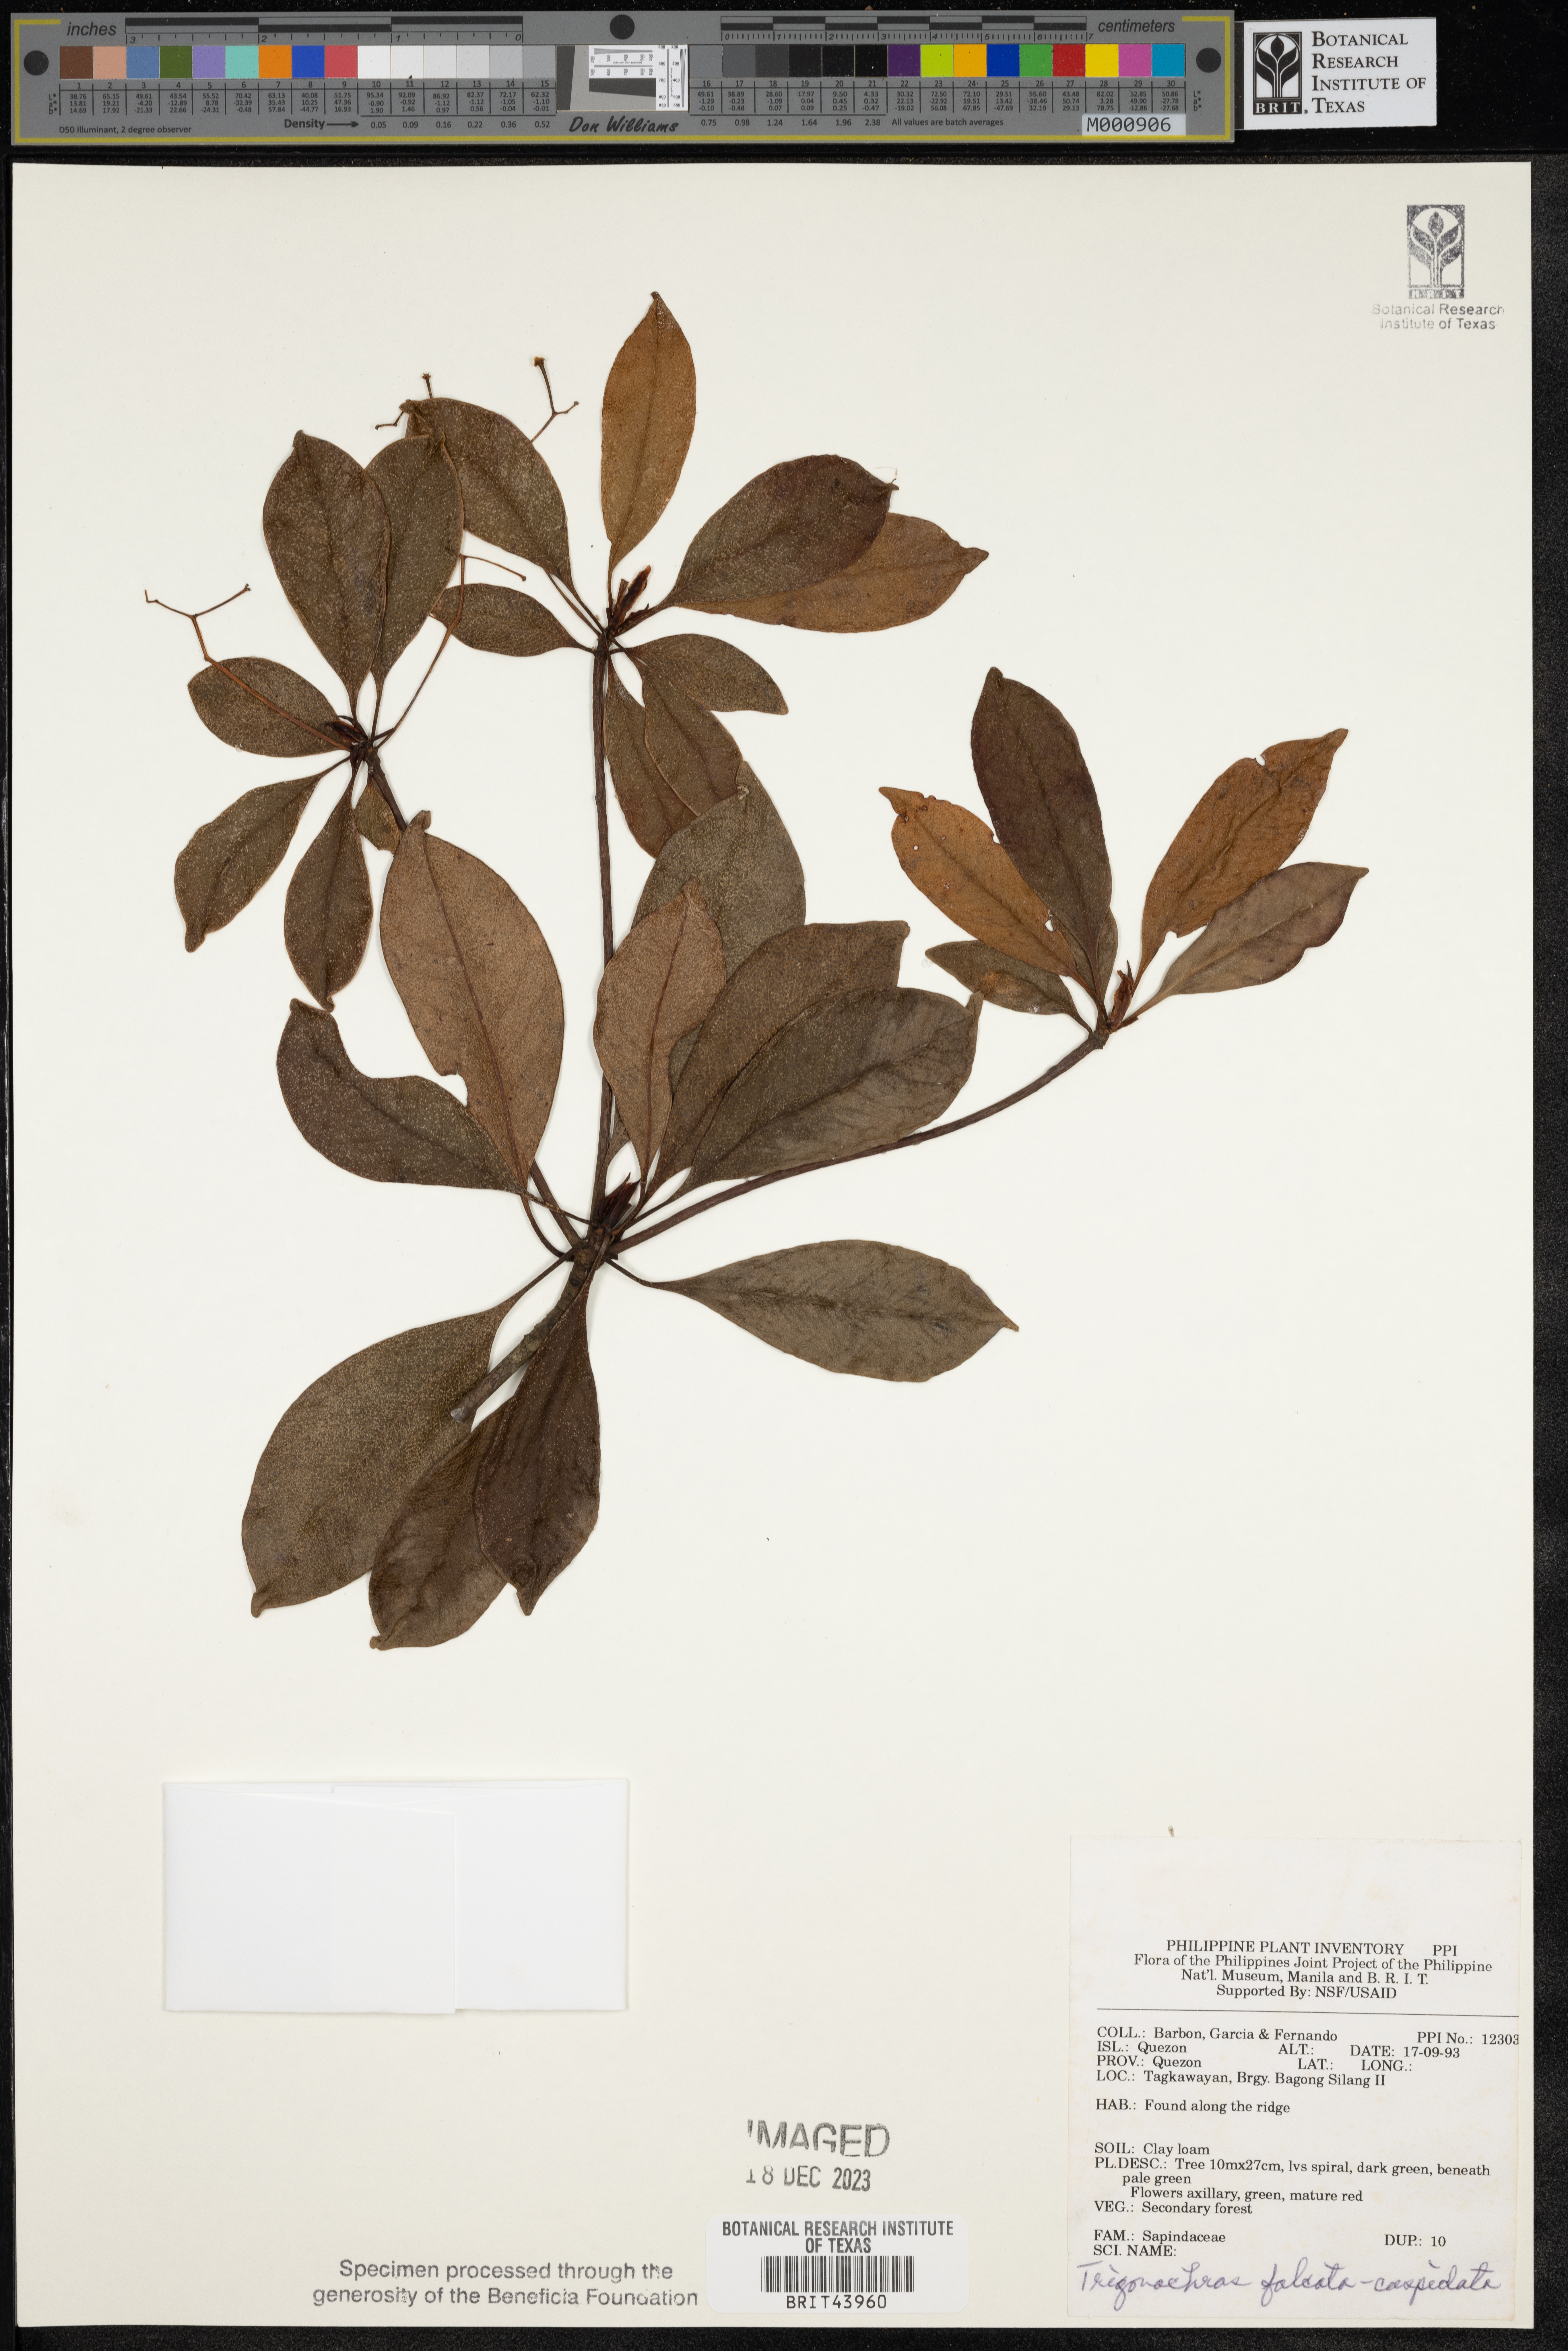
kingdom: Plantae
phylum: Tracheophyta
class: Magnoliopsida
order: Sapindales
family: Sapindaceae
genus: Trigonachras
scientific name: Trigonachras cuspidata
